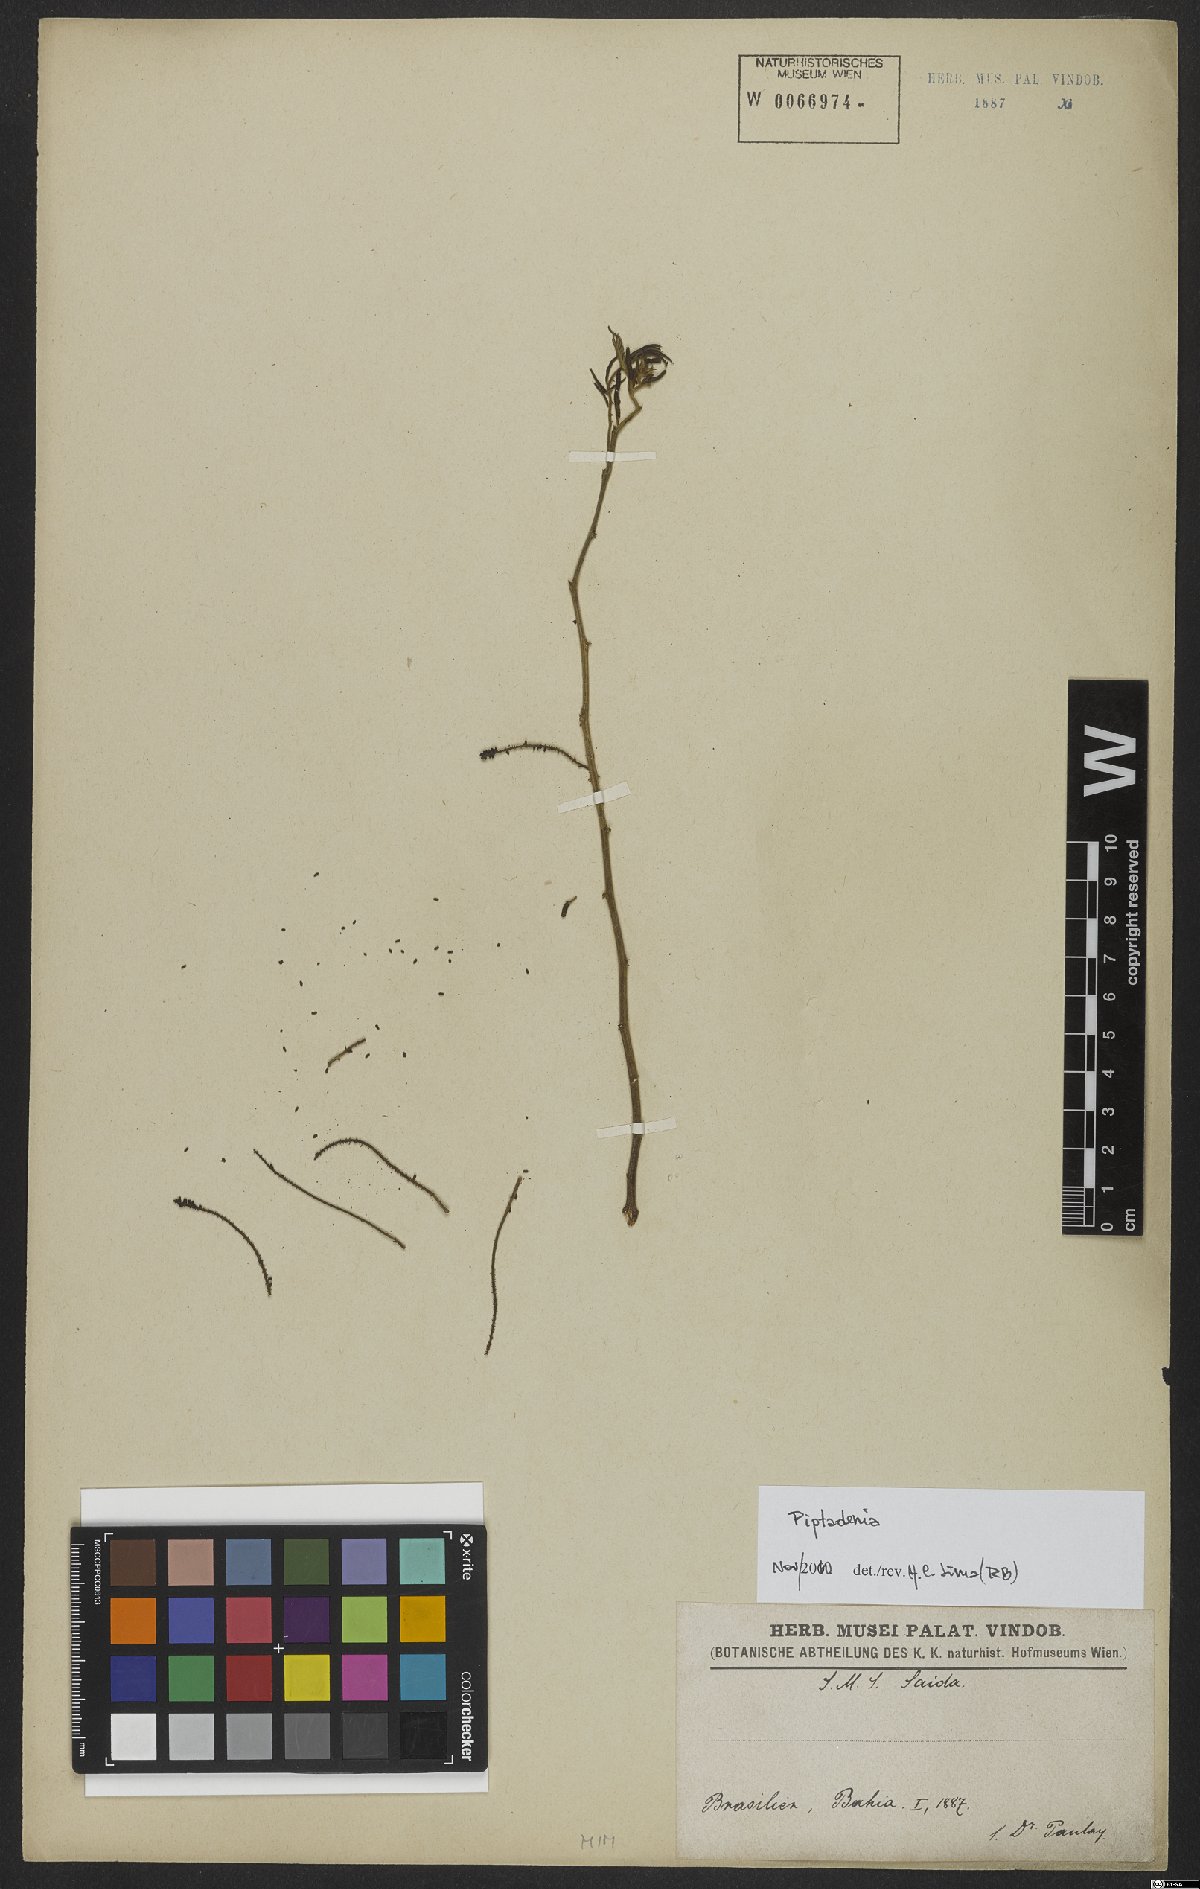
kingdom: Plantae
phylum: Tracheophyta
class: Magnoliopsida
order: Fabales
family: Fabaceae
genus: Piptadenia
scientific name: Piptadenia
